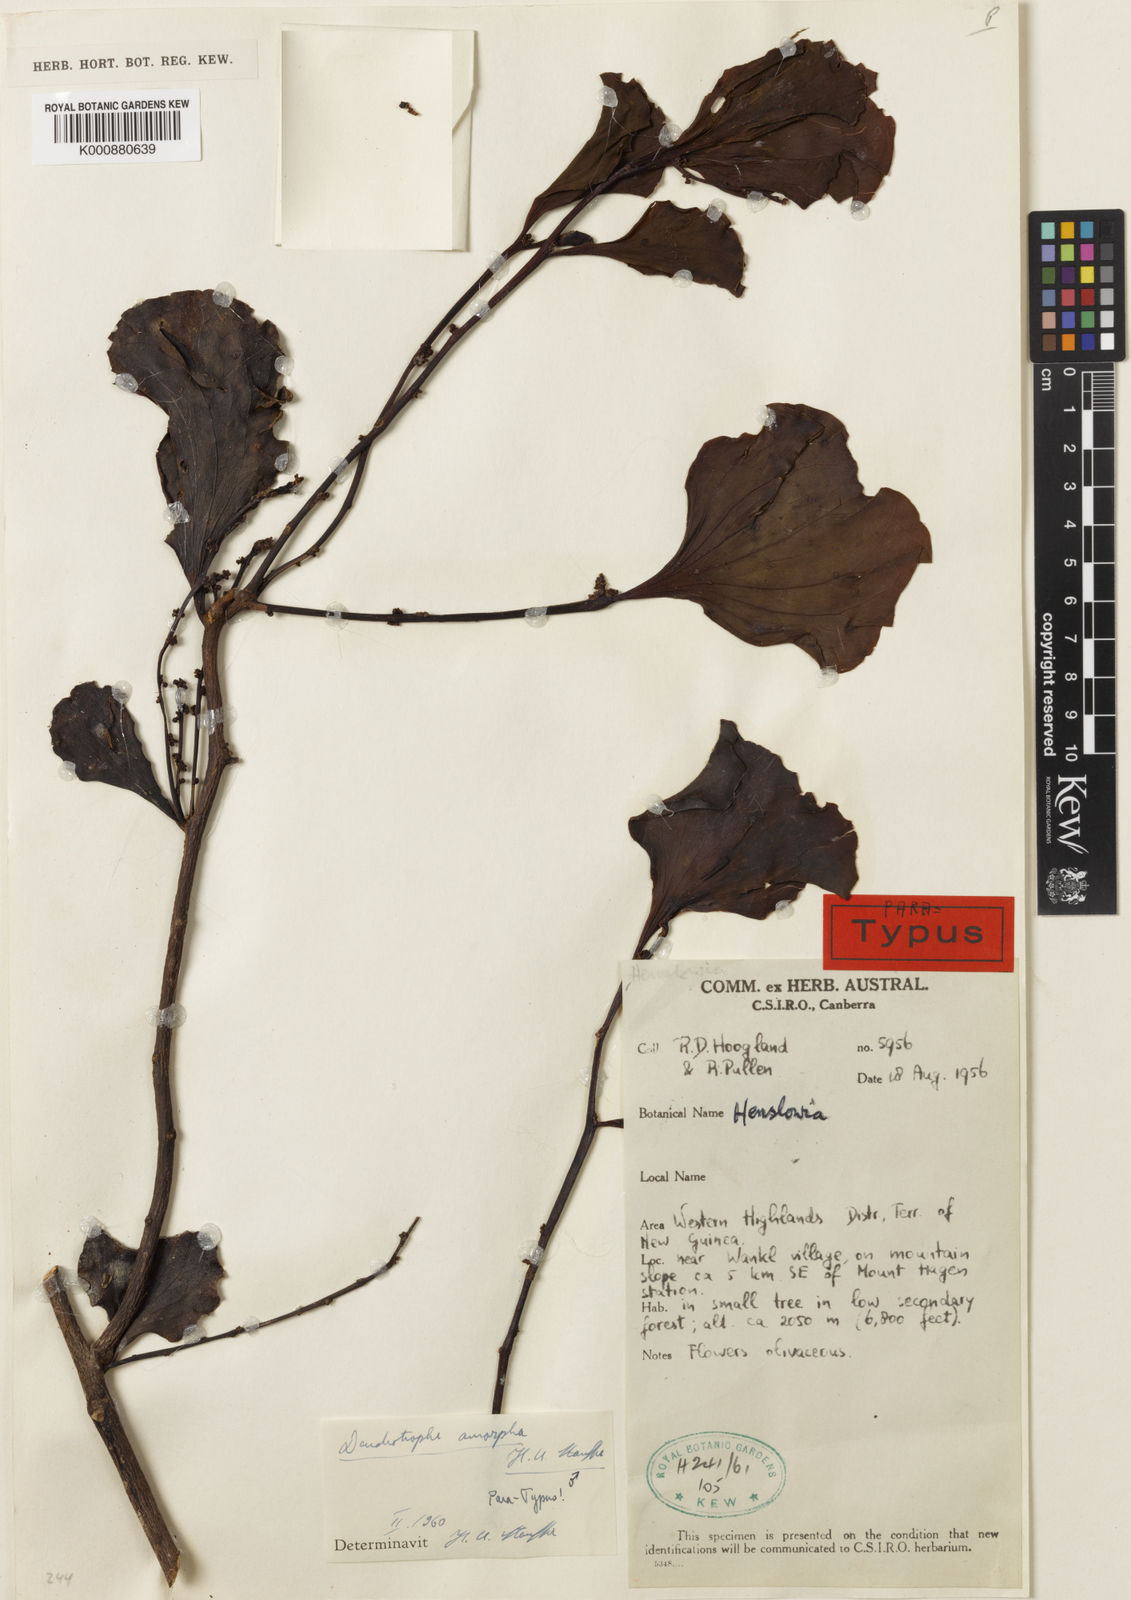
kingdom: Plantae
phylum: Tracheophyta
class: Magnoliopsida
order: Santalales
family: Amphorogynaceae
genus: Dendrotrophe
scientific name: Dendrotrophe amorpha
